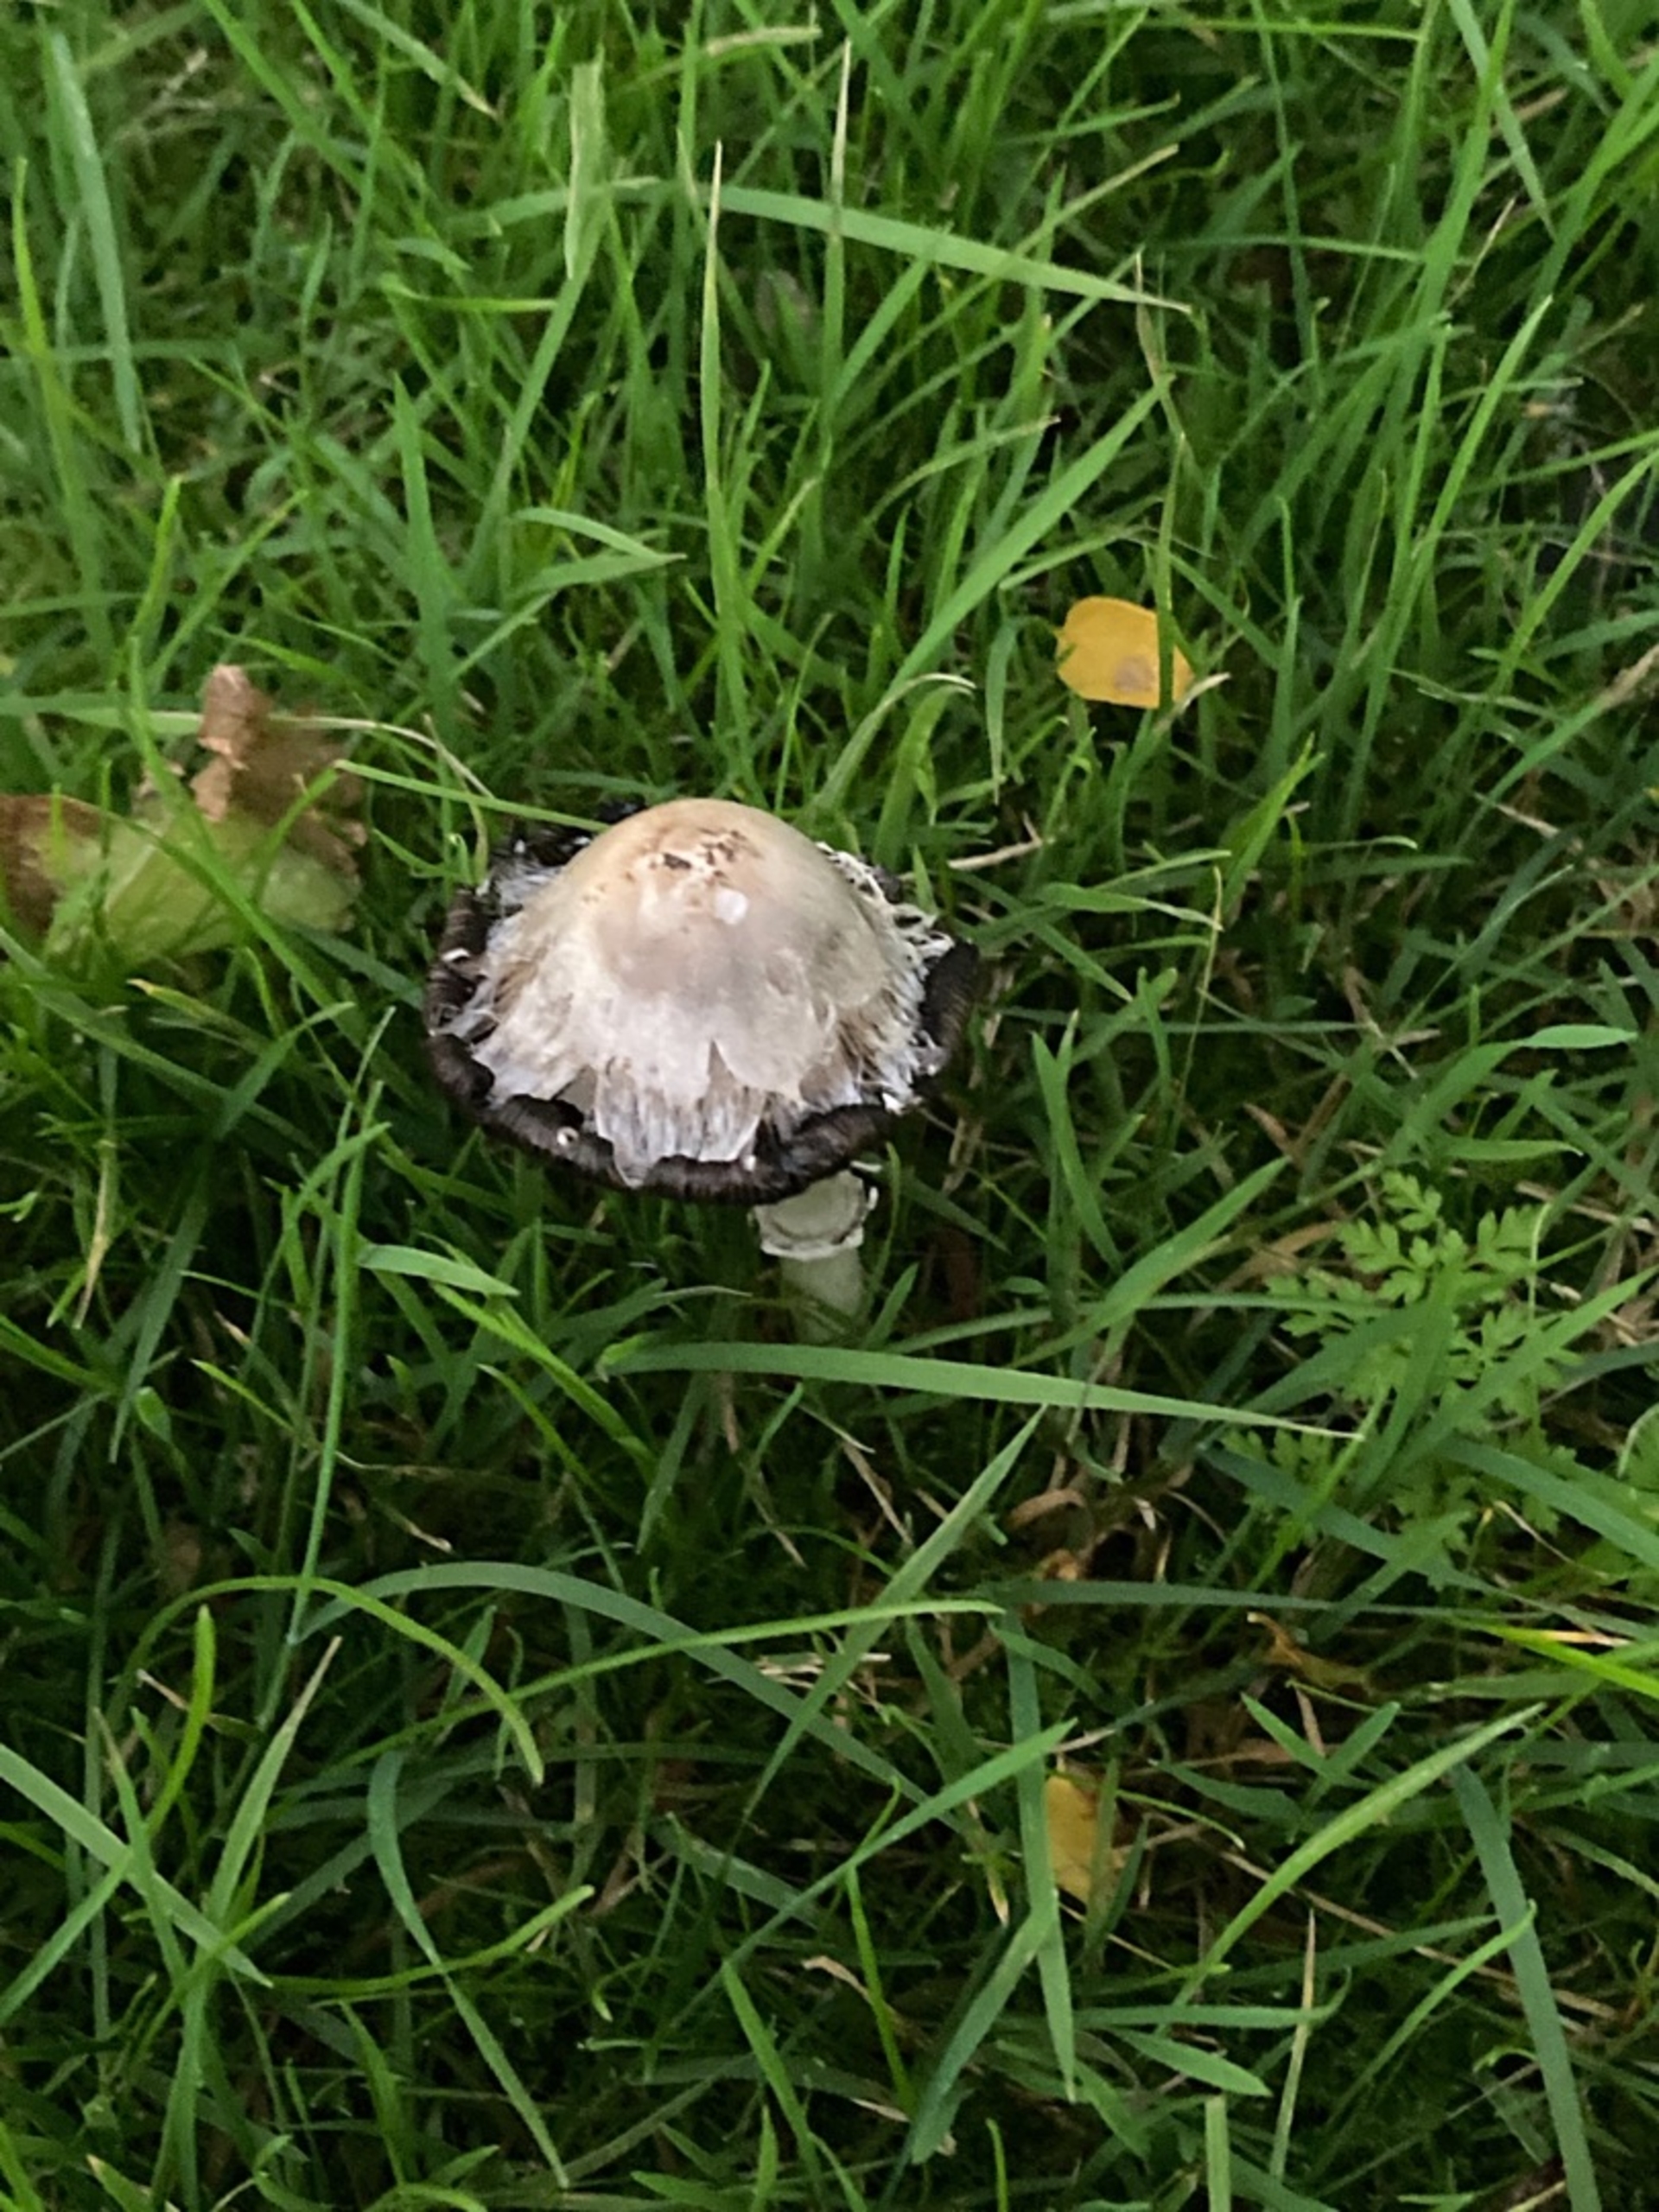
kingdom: Fungi
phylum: Basidiomycota
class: Agaricomycetes
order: Agaricales
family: Agaricaceae
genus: Coprinus
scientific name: Coprinus comatus
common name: Stor parykhat
